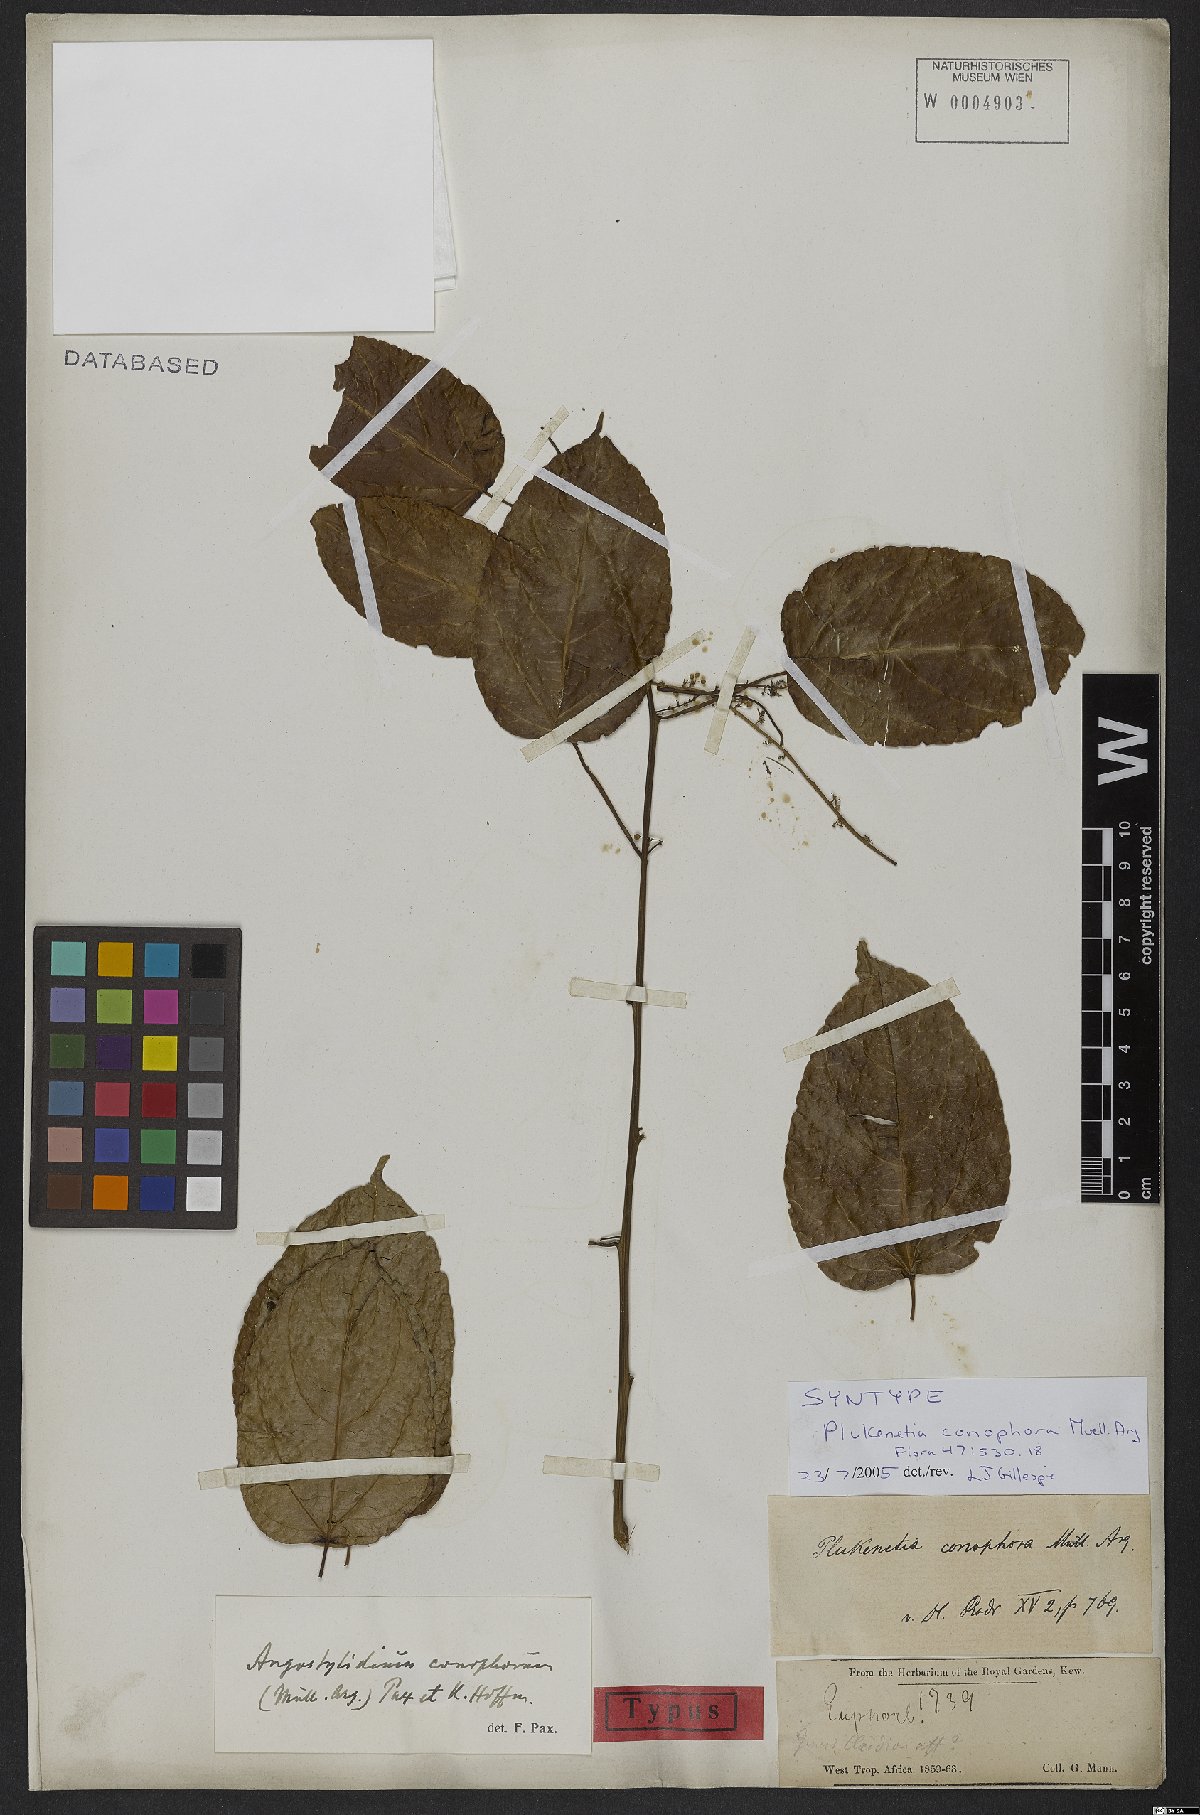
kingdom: Plantae
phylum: Tracheophyta
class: Magnoliopsida
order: Malpighiales
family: Euphorbiaceae
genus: Plukenetia
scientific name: Plukenetia conophora
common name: Owusa-nut
